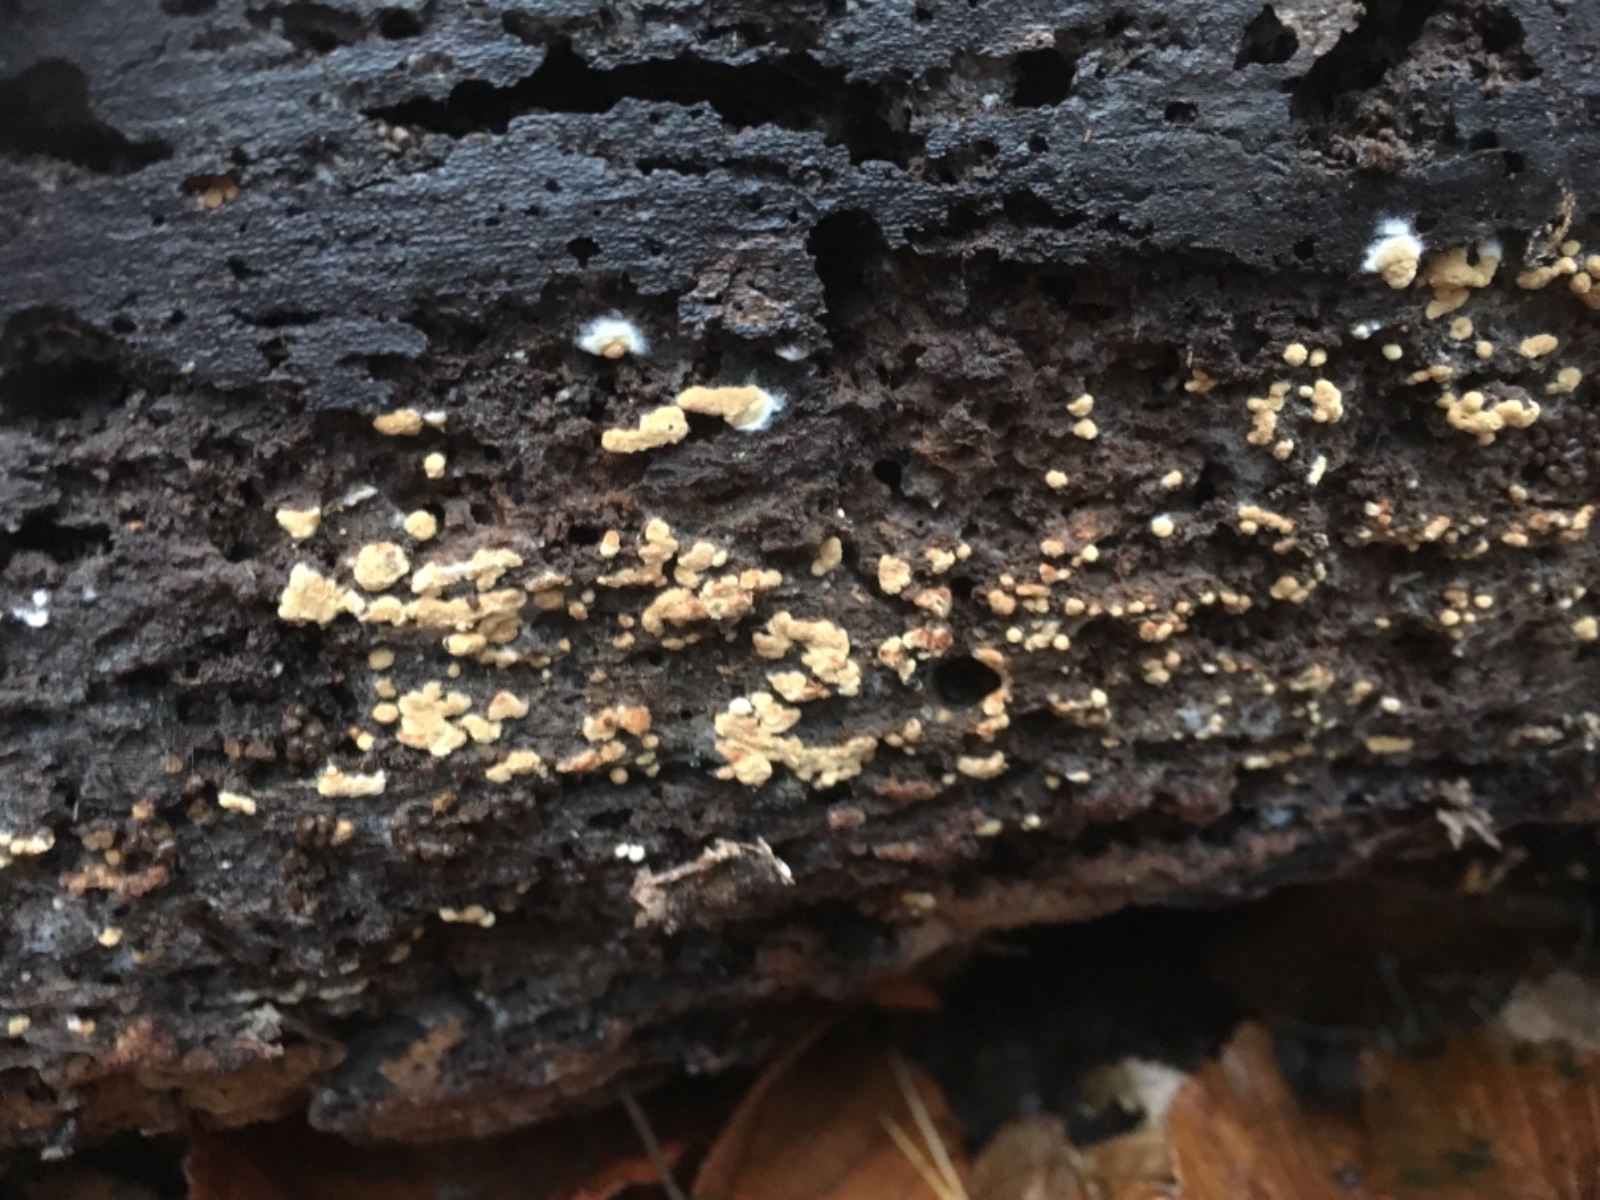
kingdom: Fungi
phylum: Basidiomycota
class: Agaricomycetes
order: Cantharellales
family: Botryobasidiaceae
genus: Botryobasidium
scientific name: Botryobasidium aureum
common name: gylden spindhinde
